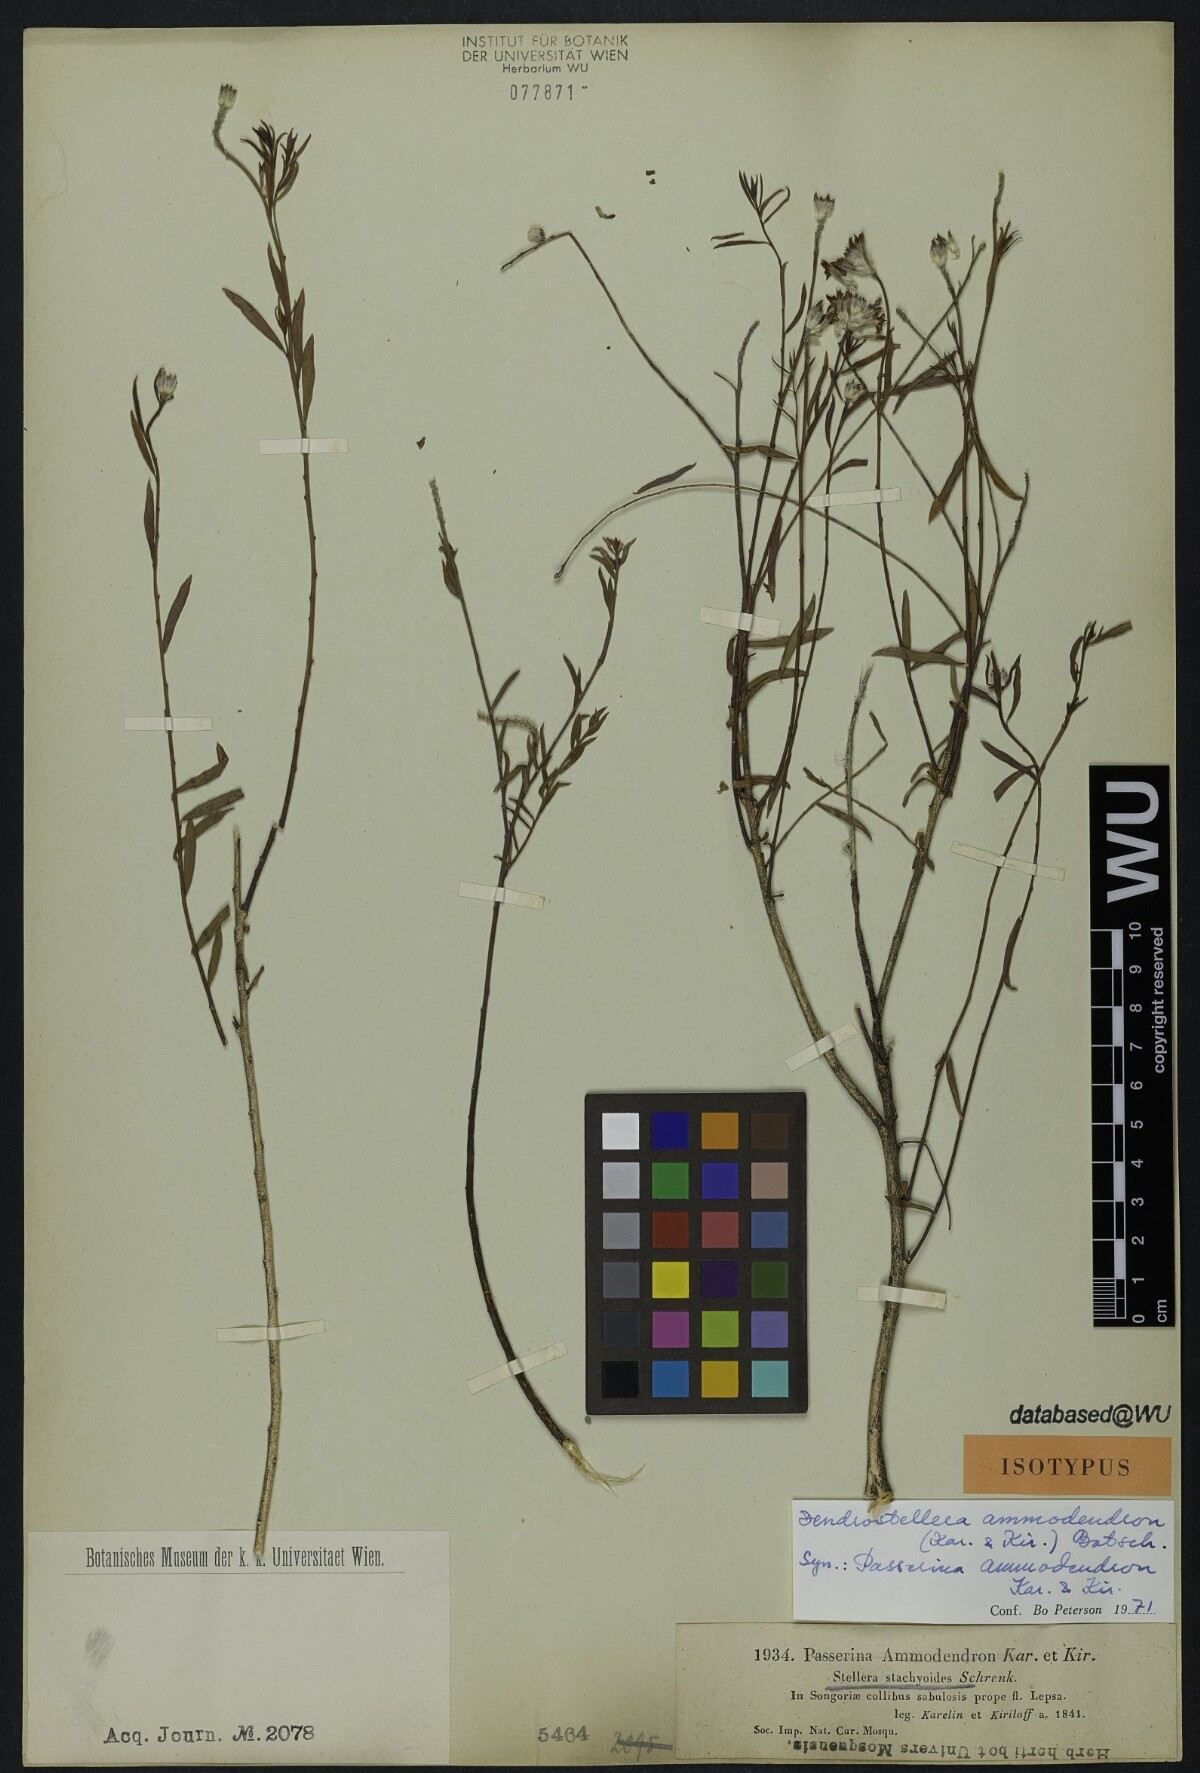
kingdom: Plantae
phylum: Tracheophyta
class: Magnoliopsida
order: Malvales
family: Thymelaeaceae
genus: Diarthron
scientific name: Diarthron ammodendron
